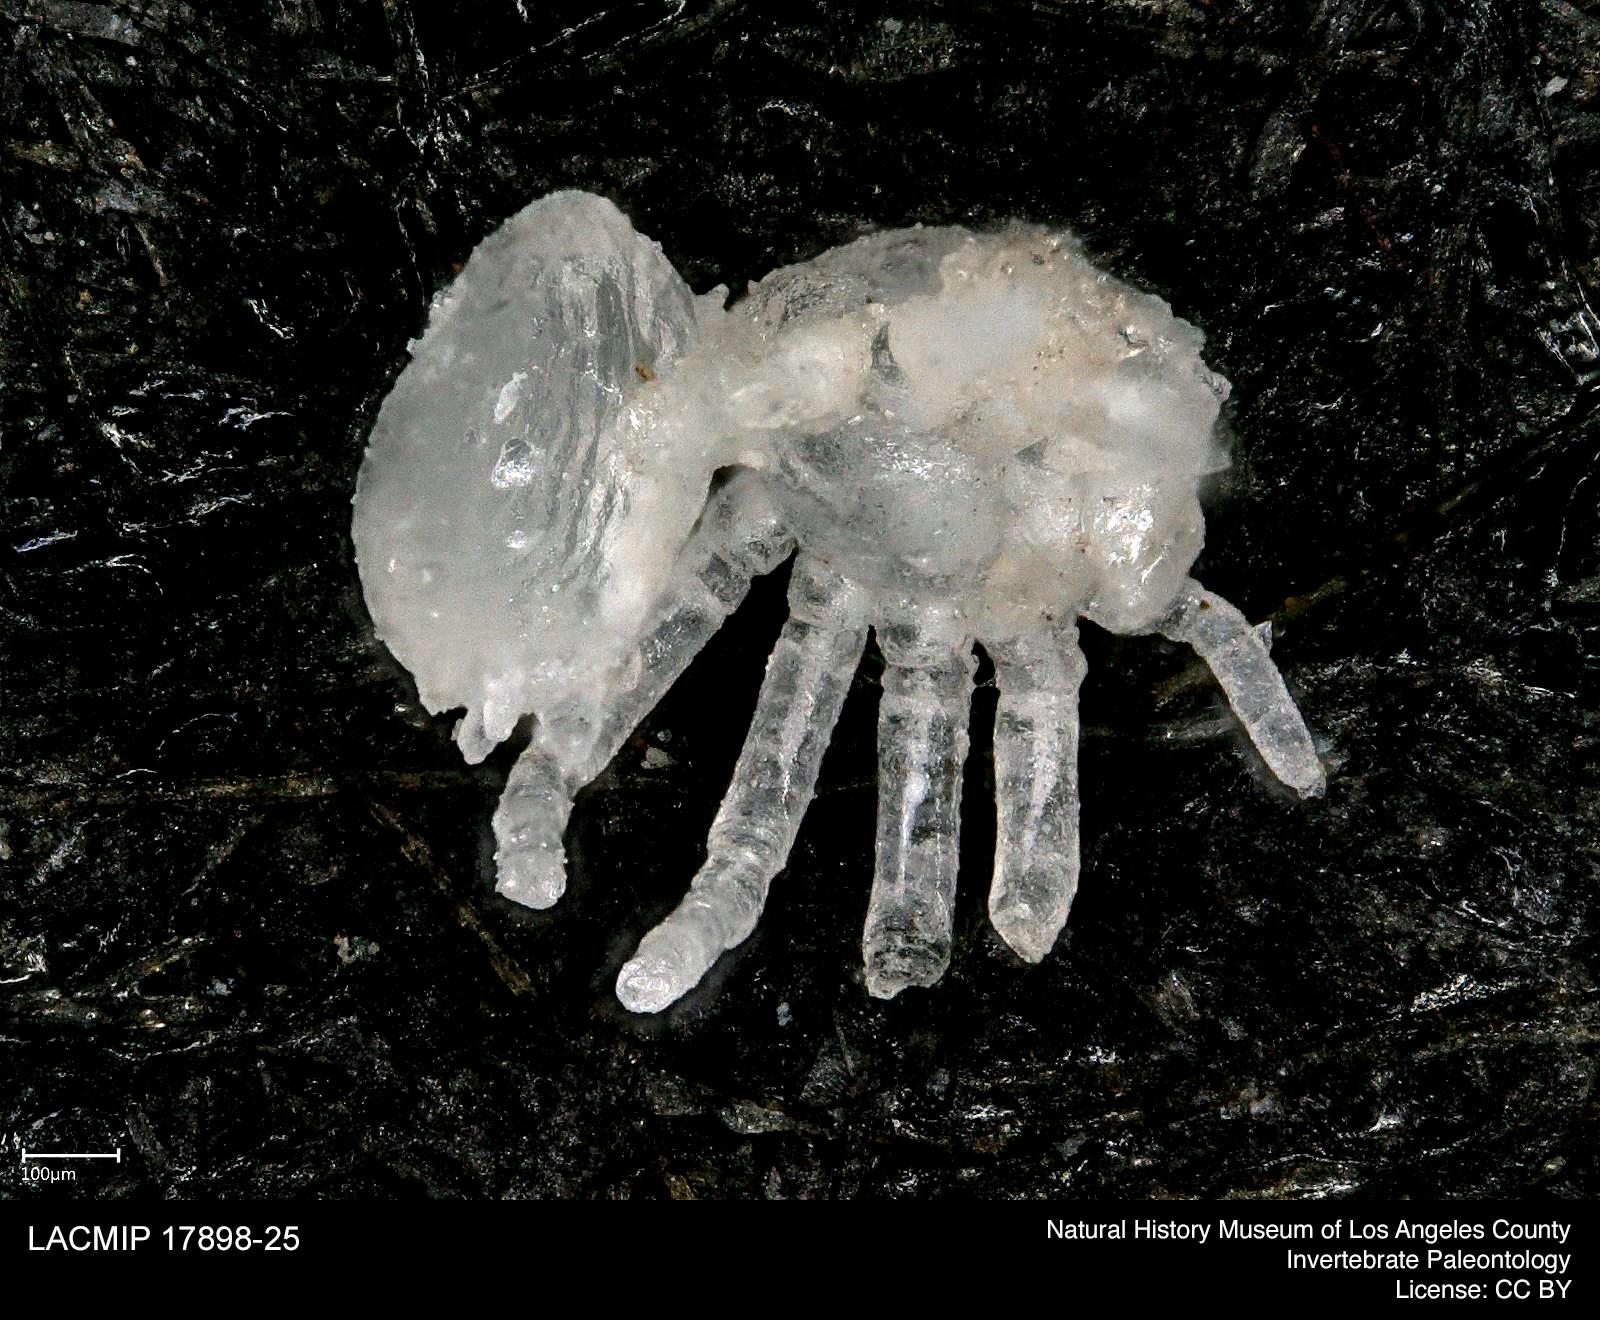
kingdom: Animalia
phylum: Arthropoda
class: Arachnida
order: Araneae
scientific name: Araneae
